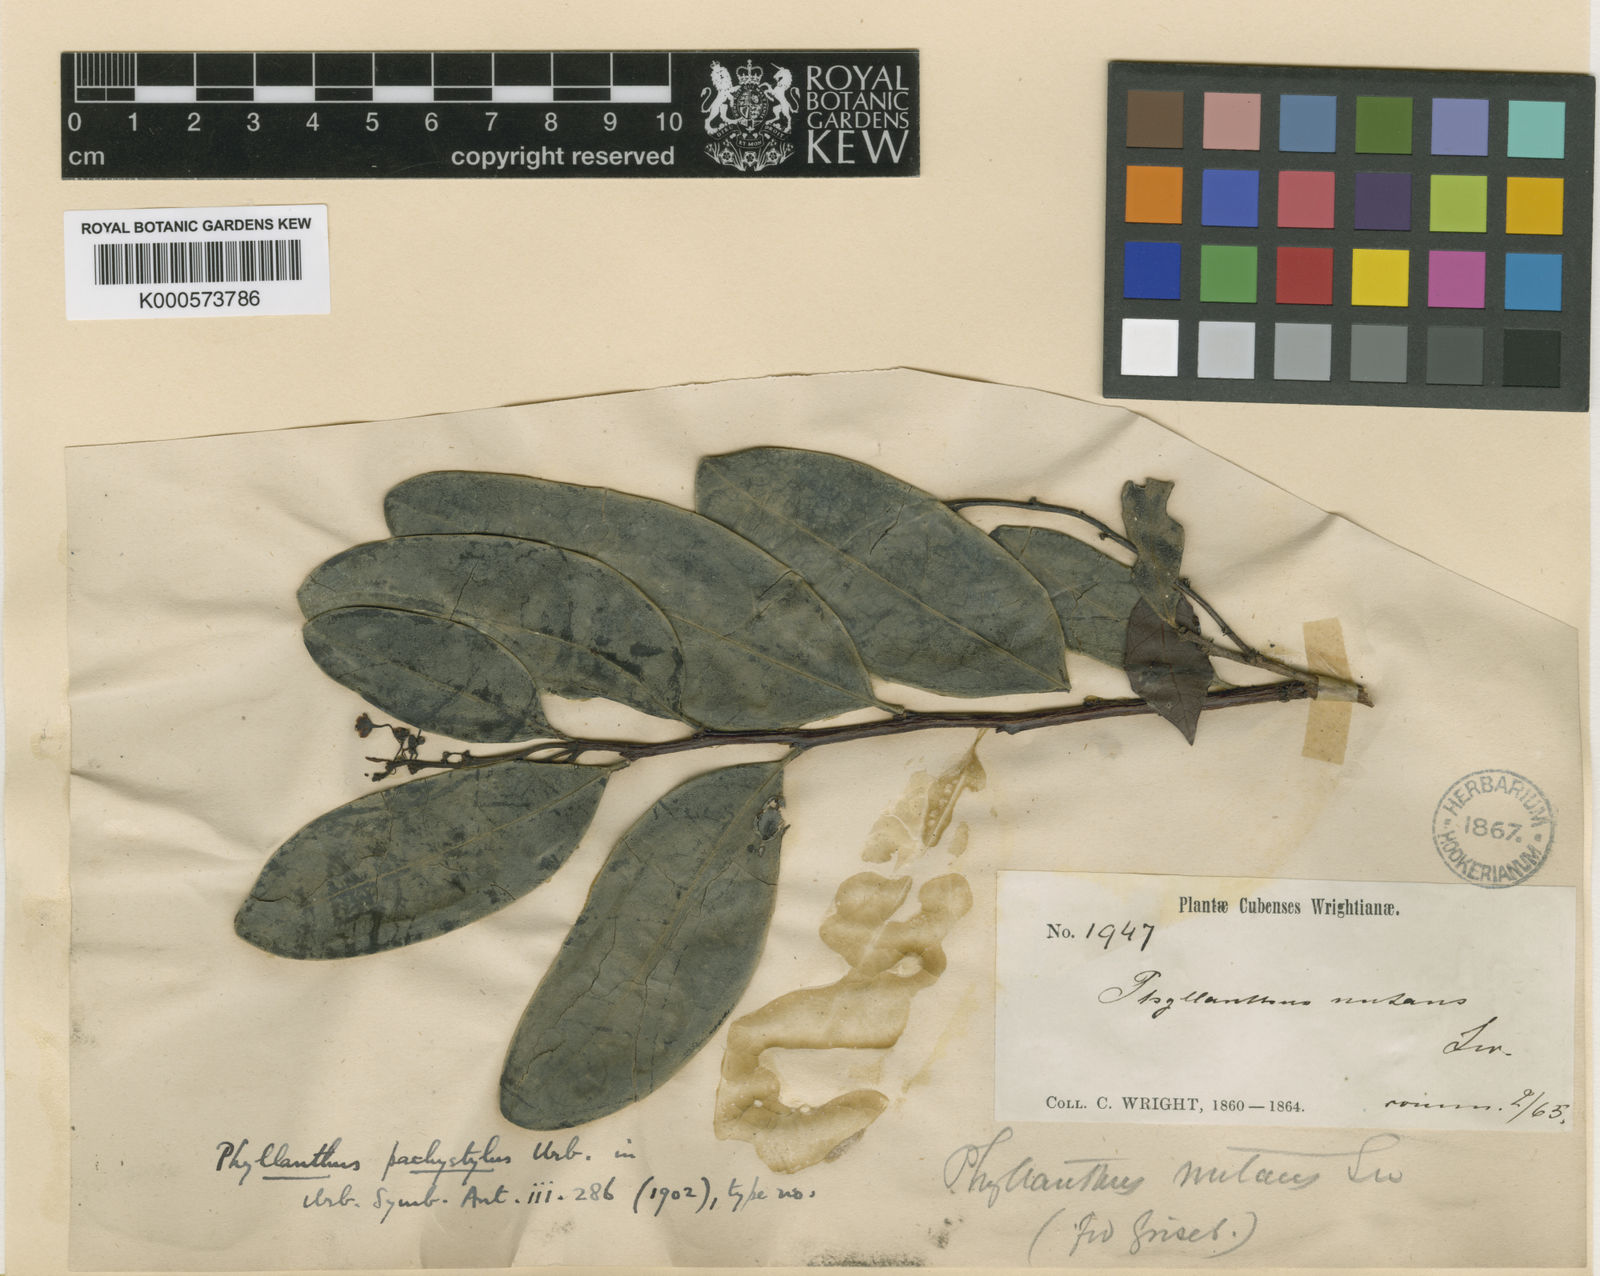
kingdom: Plantae
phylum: Tracheophyta
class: Magnoliopsida
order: Malpighiales
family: Phyllanthaceae
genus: Phyllanthus
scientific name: Phyllanthus pachystylus
